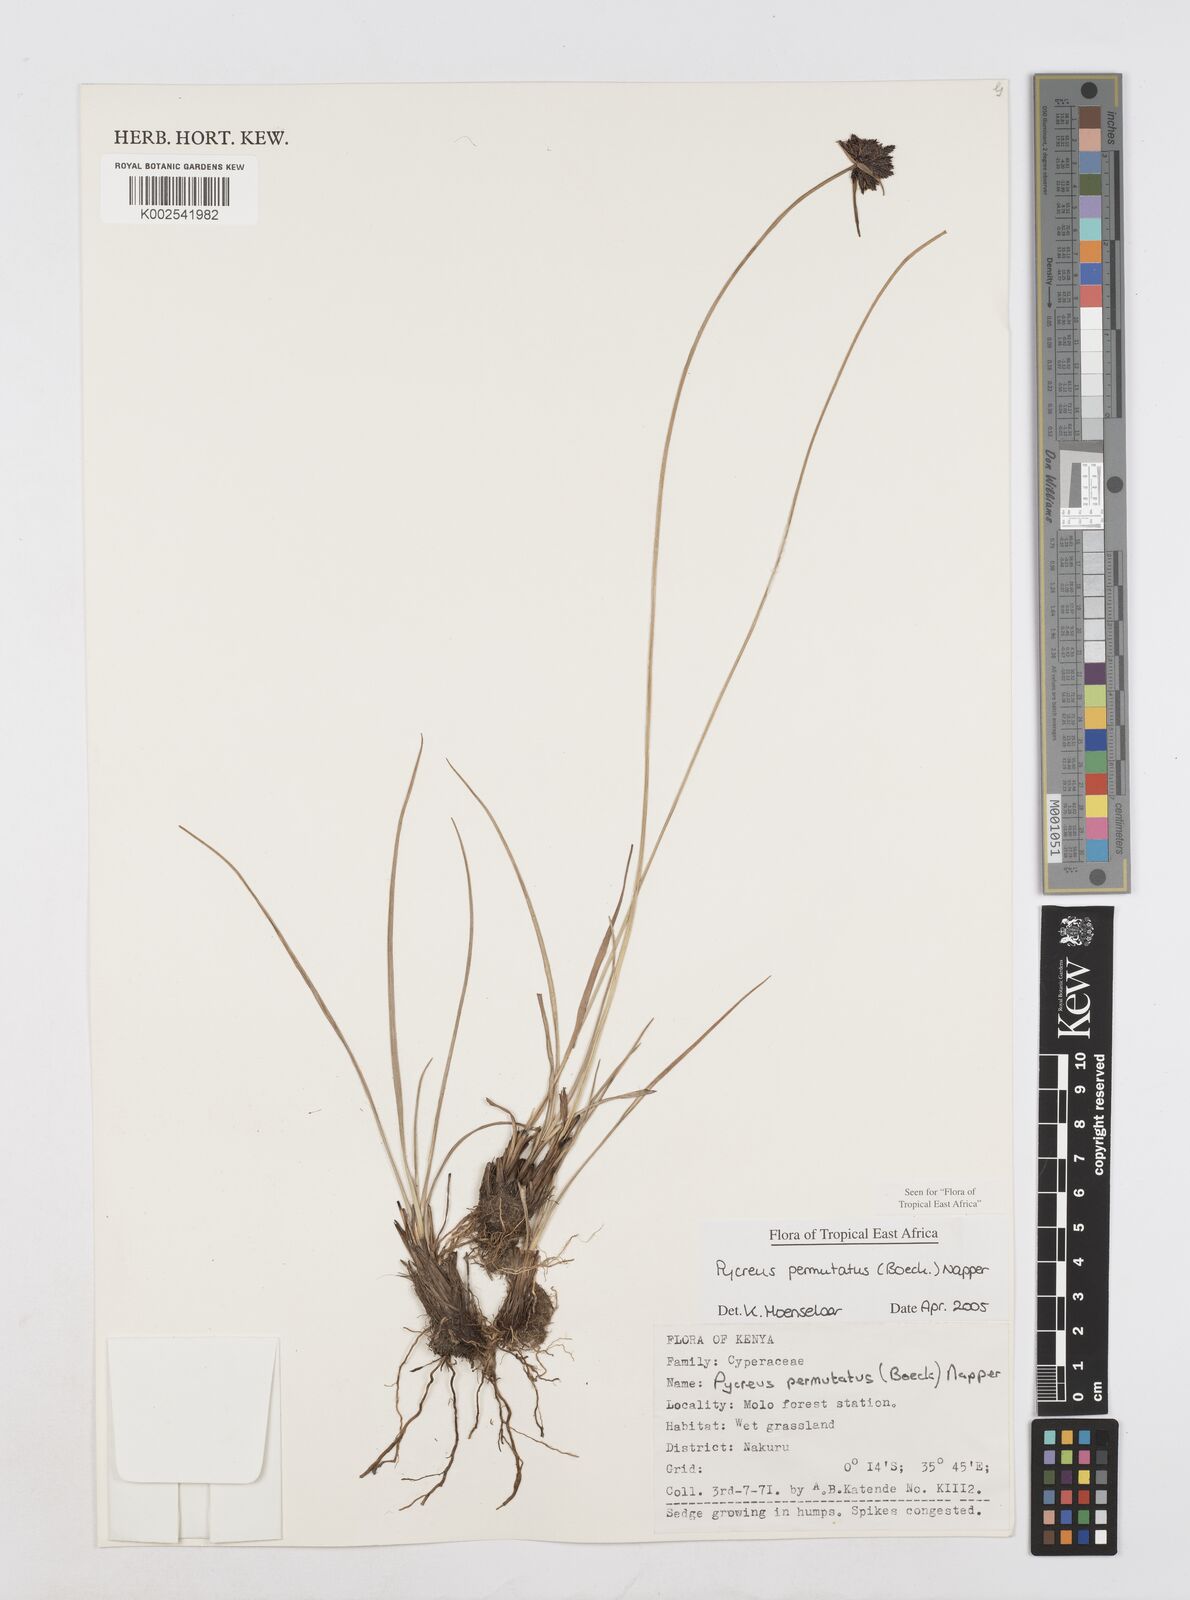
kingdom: Plantae
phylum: Tracheophyta
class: Liliopsida
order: Poales
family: Cyperaceae
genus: Cyperus
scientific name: Cyperus nigricans
